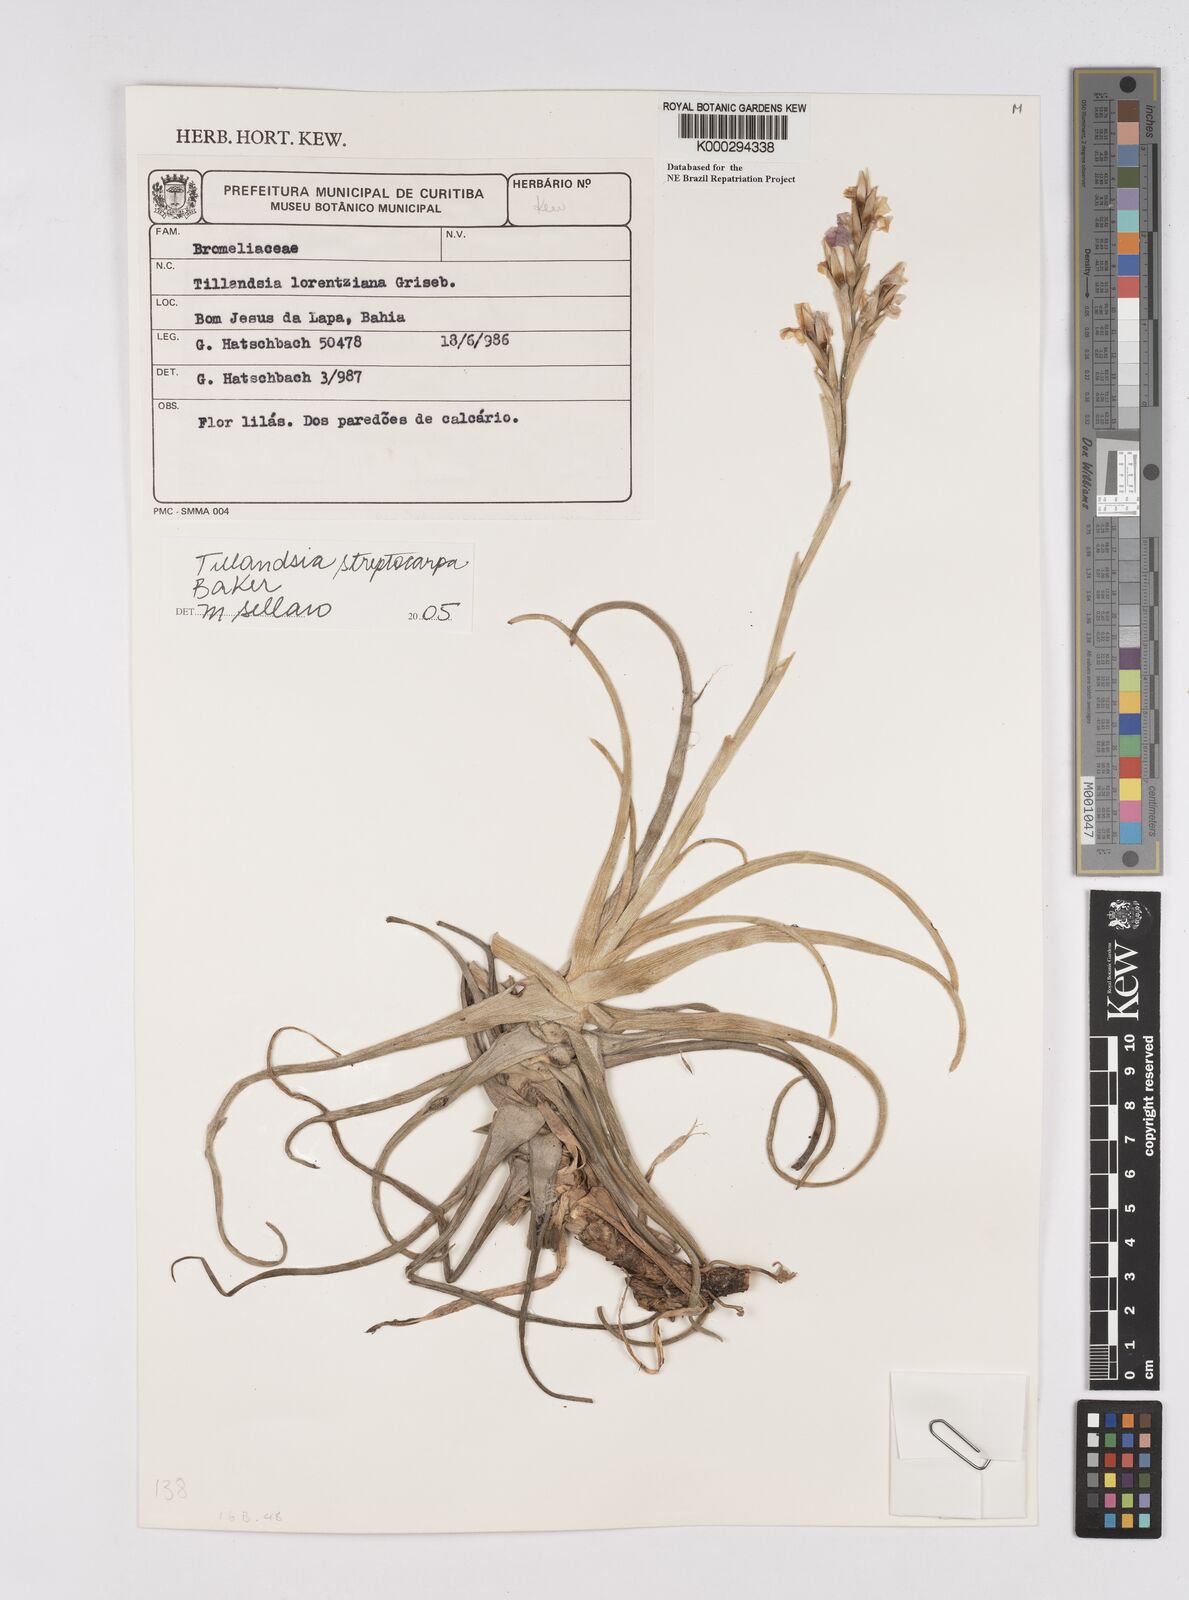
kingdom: Plantae
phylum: Tracheophyta
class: Liliopsida
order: Poales
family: Bromeliaceae
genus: Tillandsia
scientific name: Tillandsia streptocarpa
